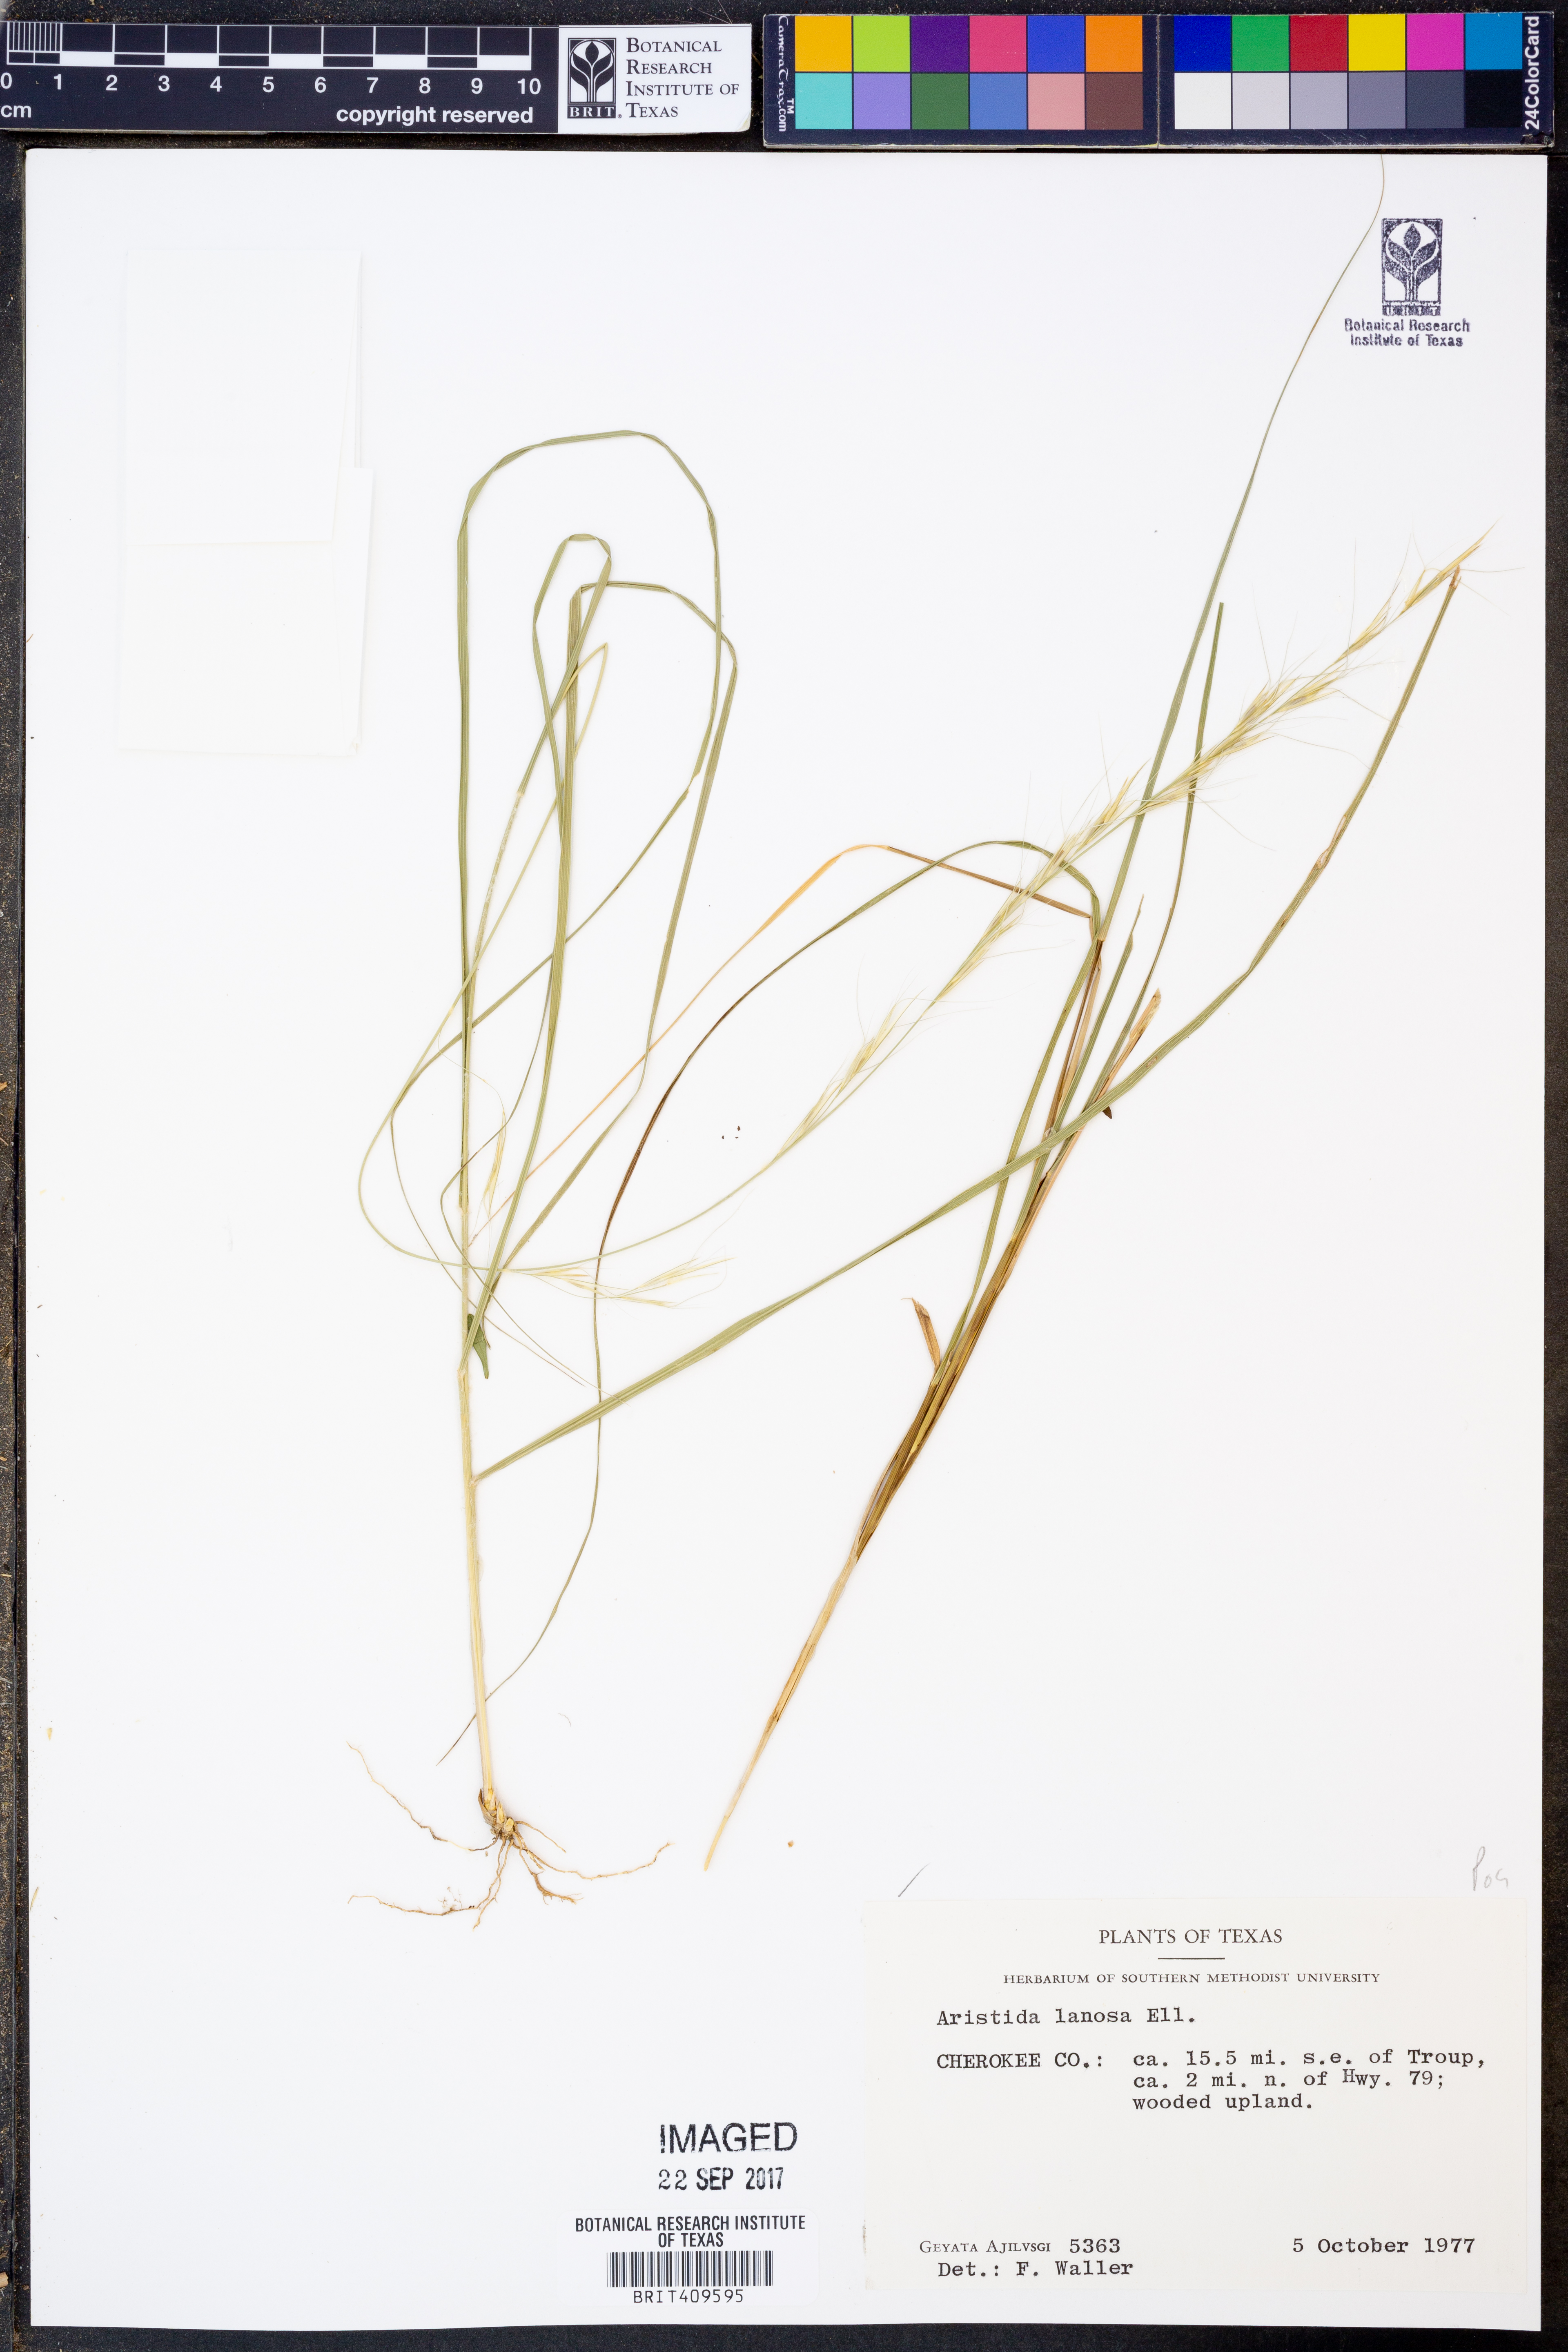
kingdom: Plantae
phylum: Tracheophyta
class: Liliopsida
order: Poales
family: Poaceae
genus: Aristida
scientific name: Aristida lanosa
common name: Woolly three-awn
